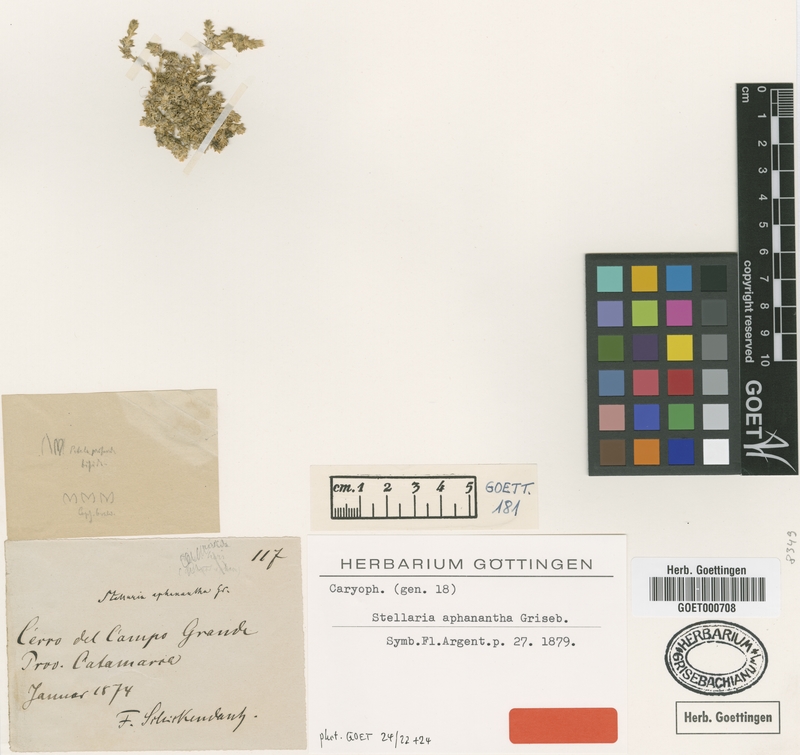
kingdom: Plantae
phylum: Tracheophyta
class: Magnoliopsida
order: Caryophyllales
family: Caryophyllaceae
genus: Stellaria
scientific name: Stellaria aphanantha
